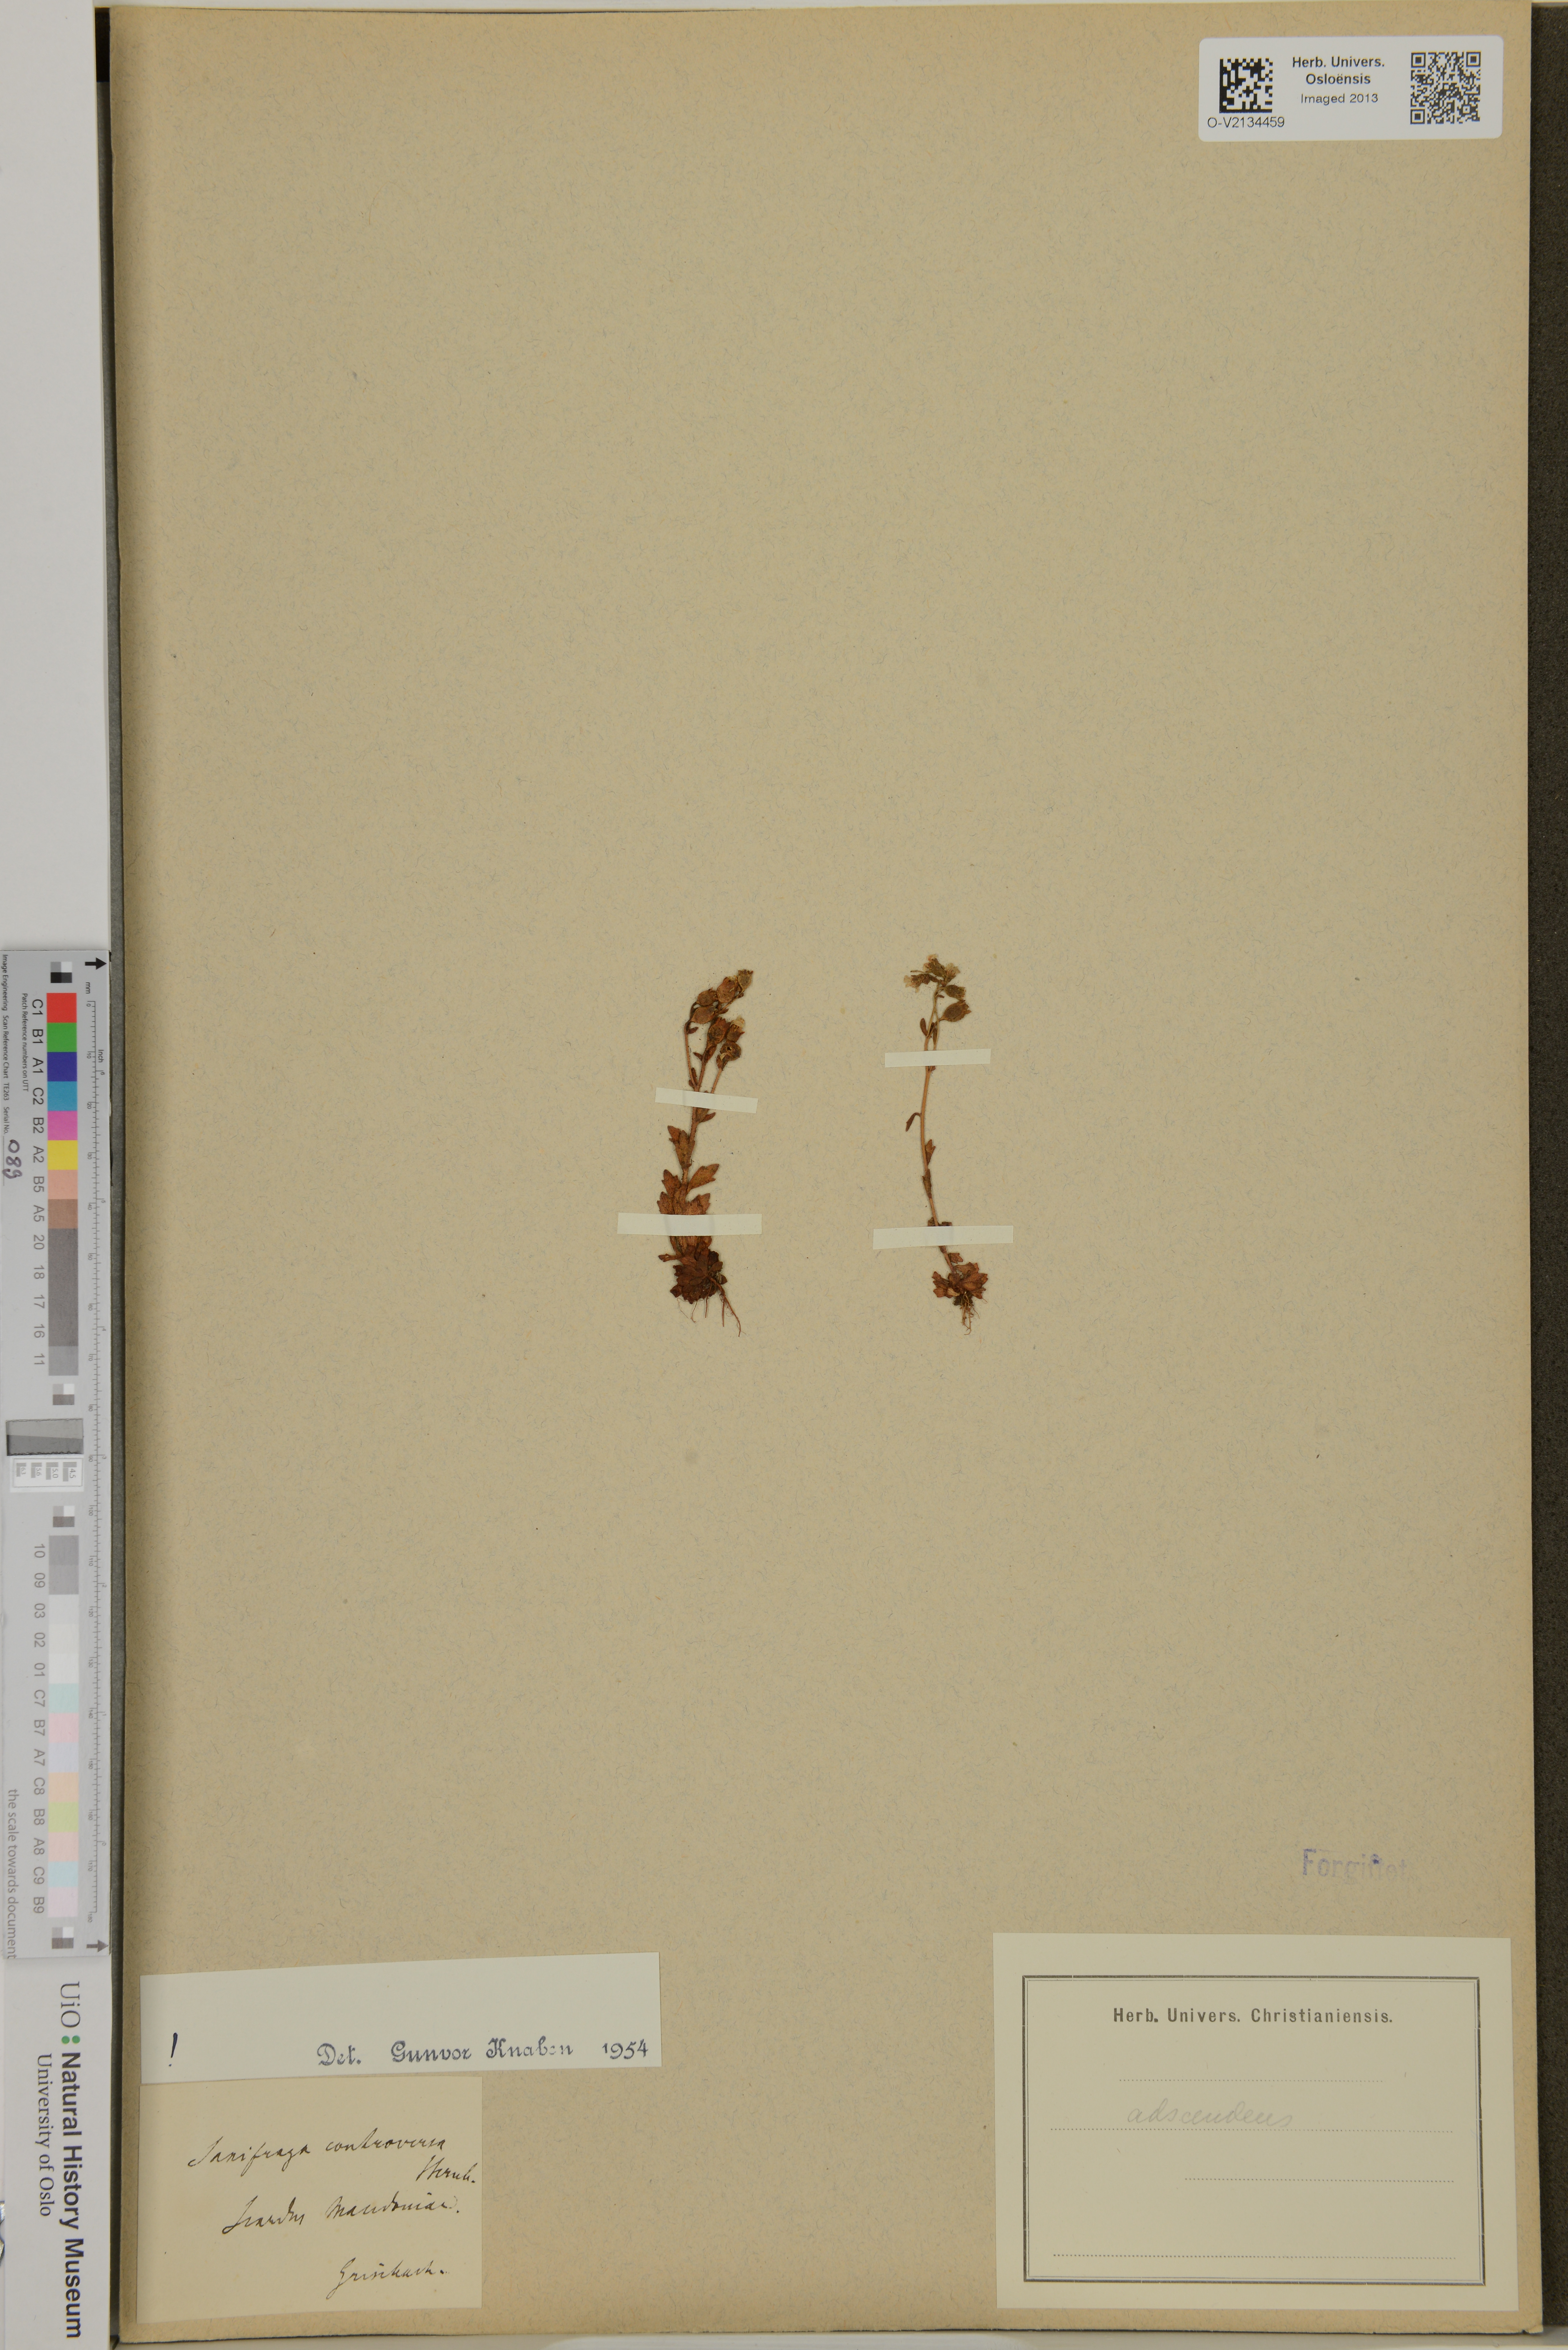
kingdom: Plantae
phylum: Tracheophyta
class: Magnoliopsida
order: Saxifragales
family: Saxifragaceae
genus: Saxifraga
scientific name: Saxifraga adscendens
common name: Ascending saxifrage
